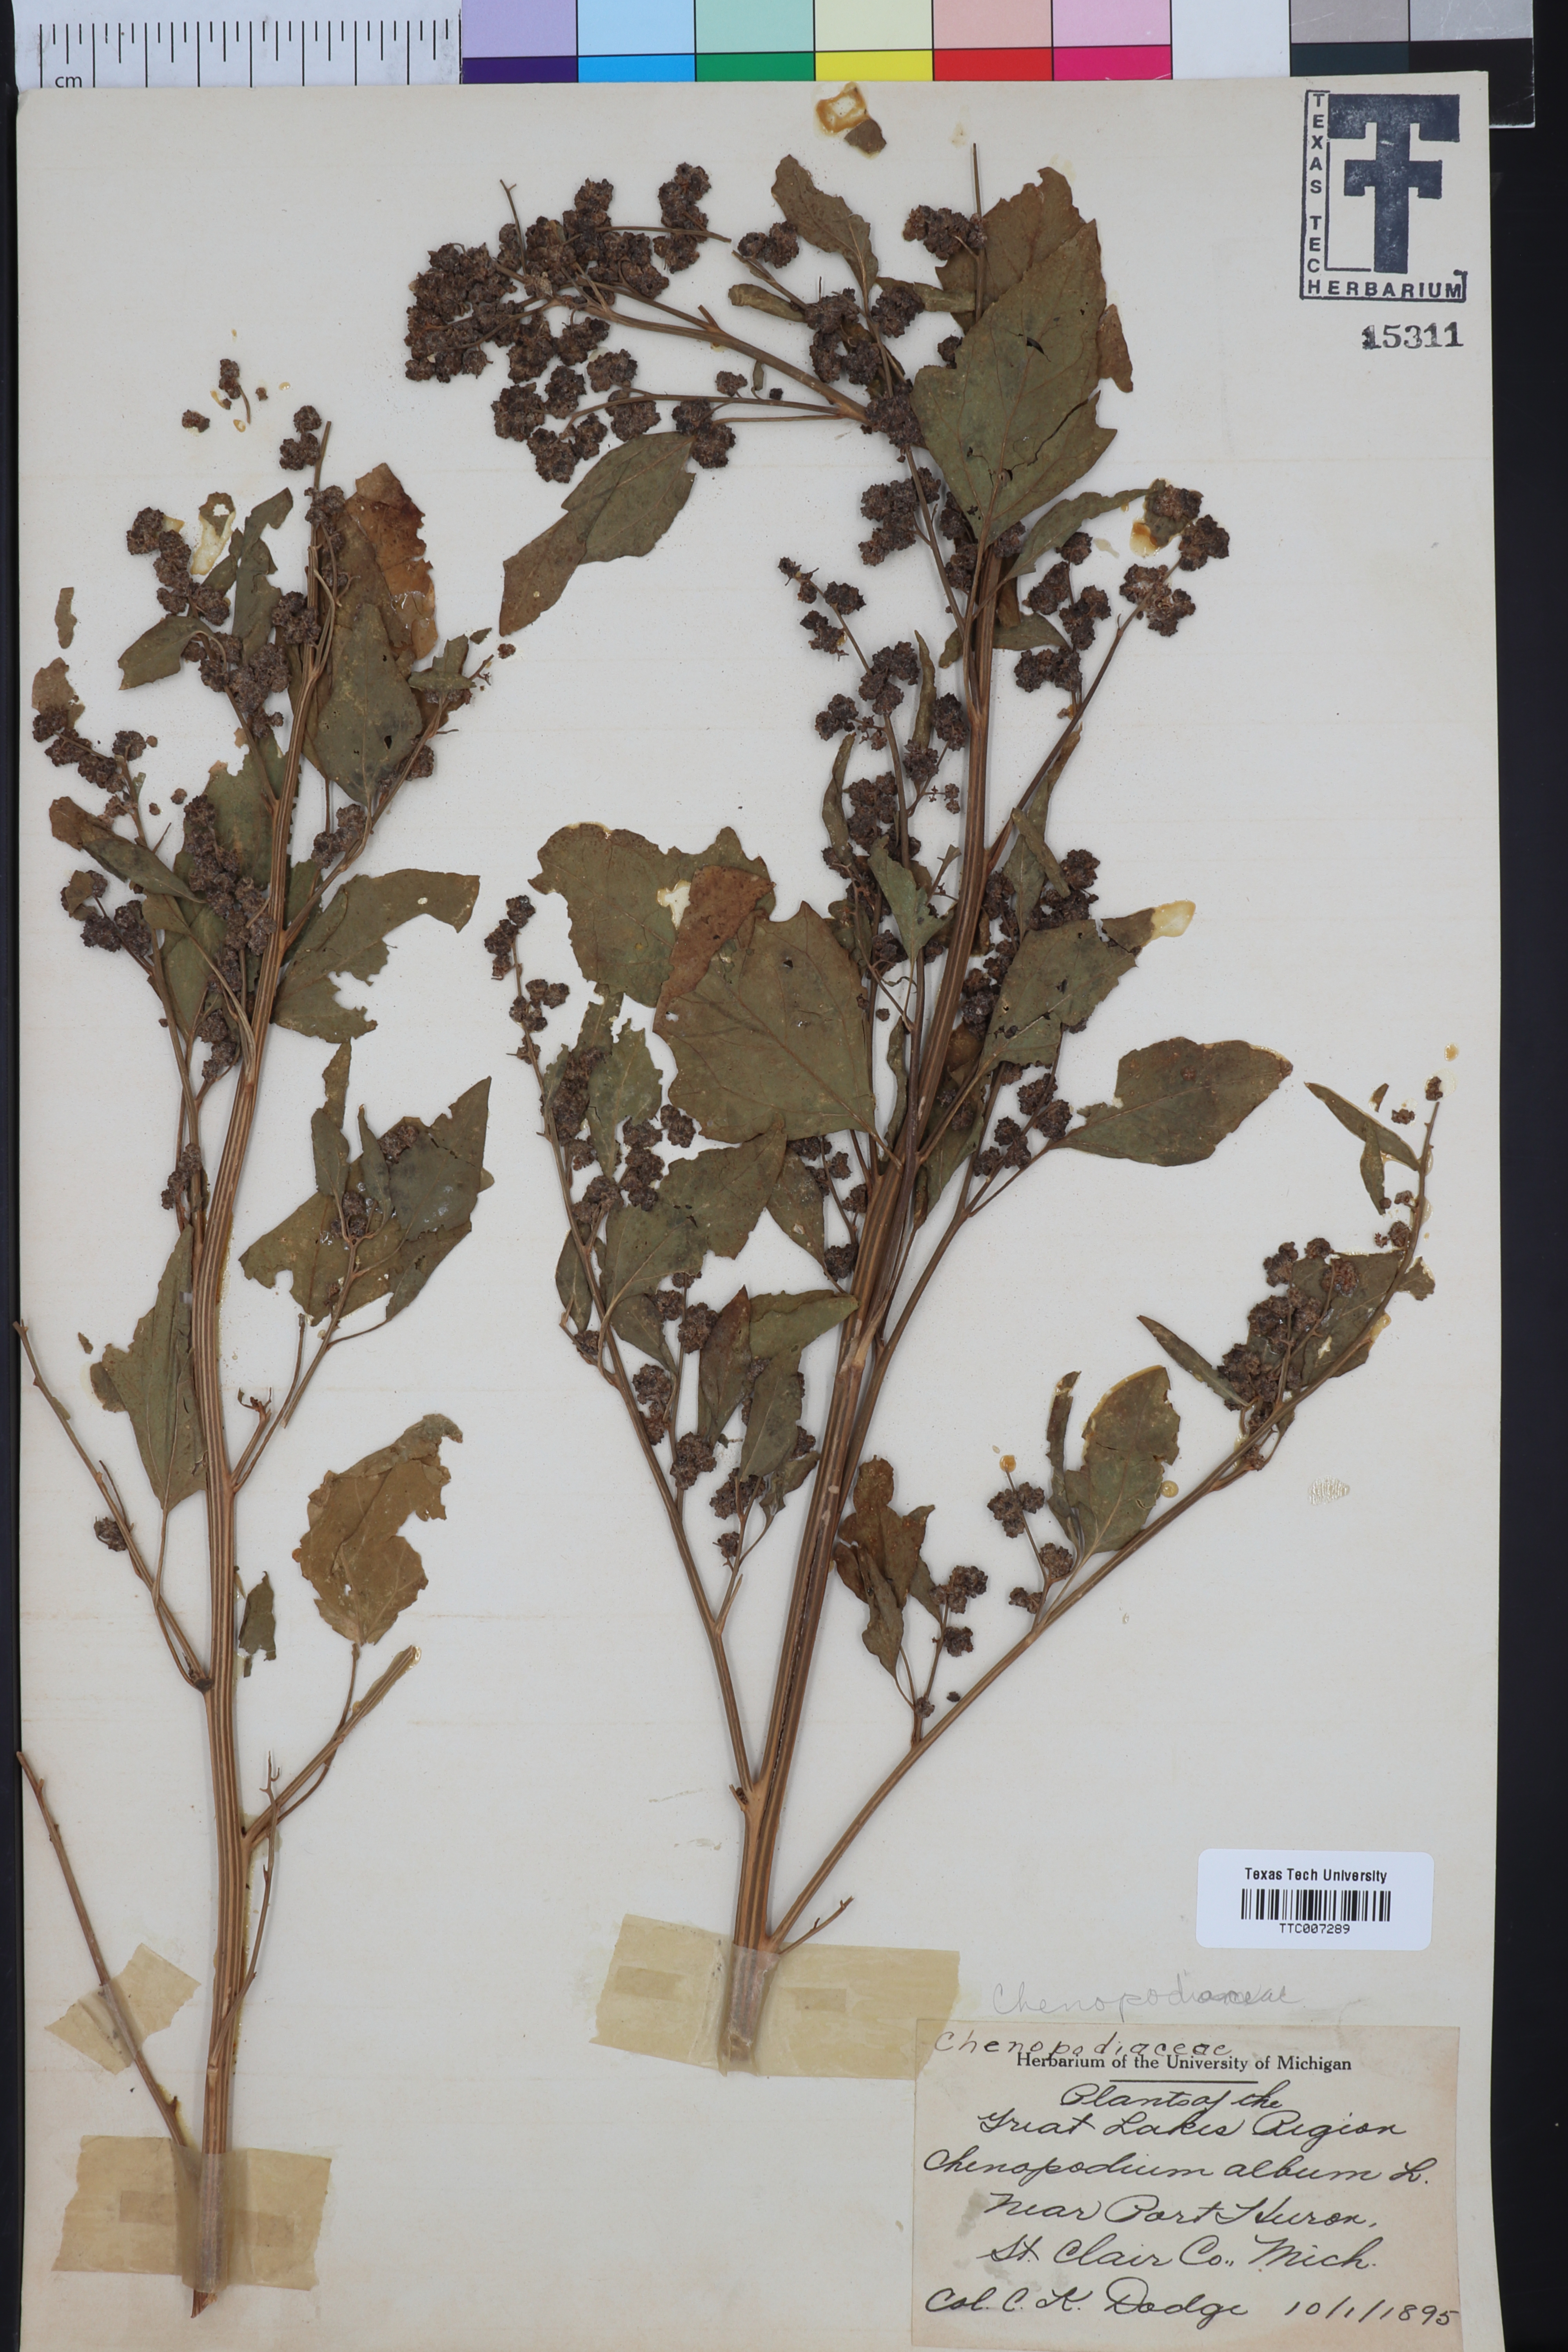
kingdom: Plantae
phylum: Tracheophyta
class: Magnoliopsida
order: Caryophyllales
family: Amaranthaceae
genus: Chenopodium
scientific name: Chenopodium album
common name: Fat-hen
